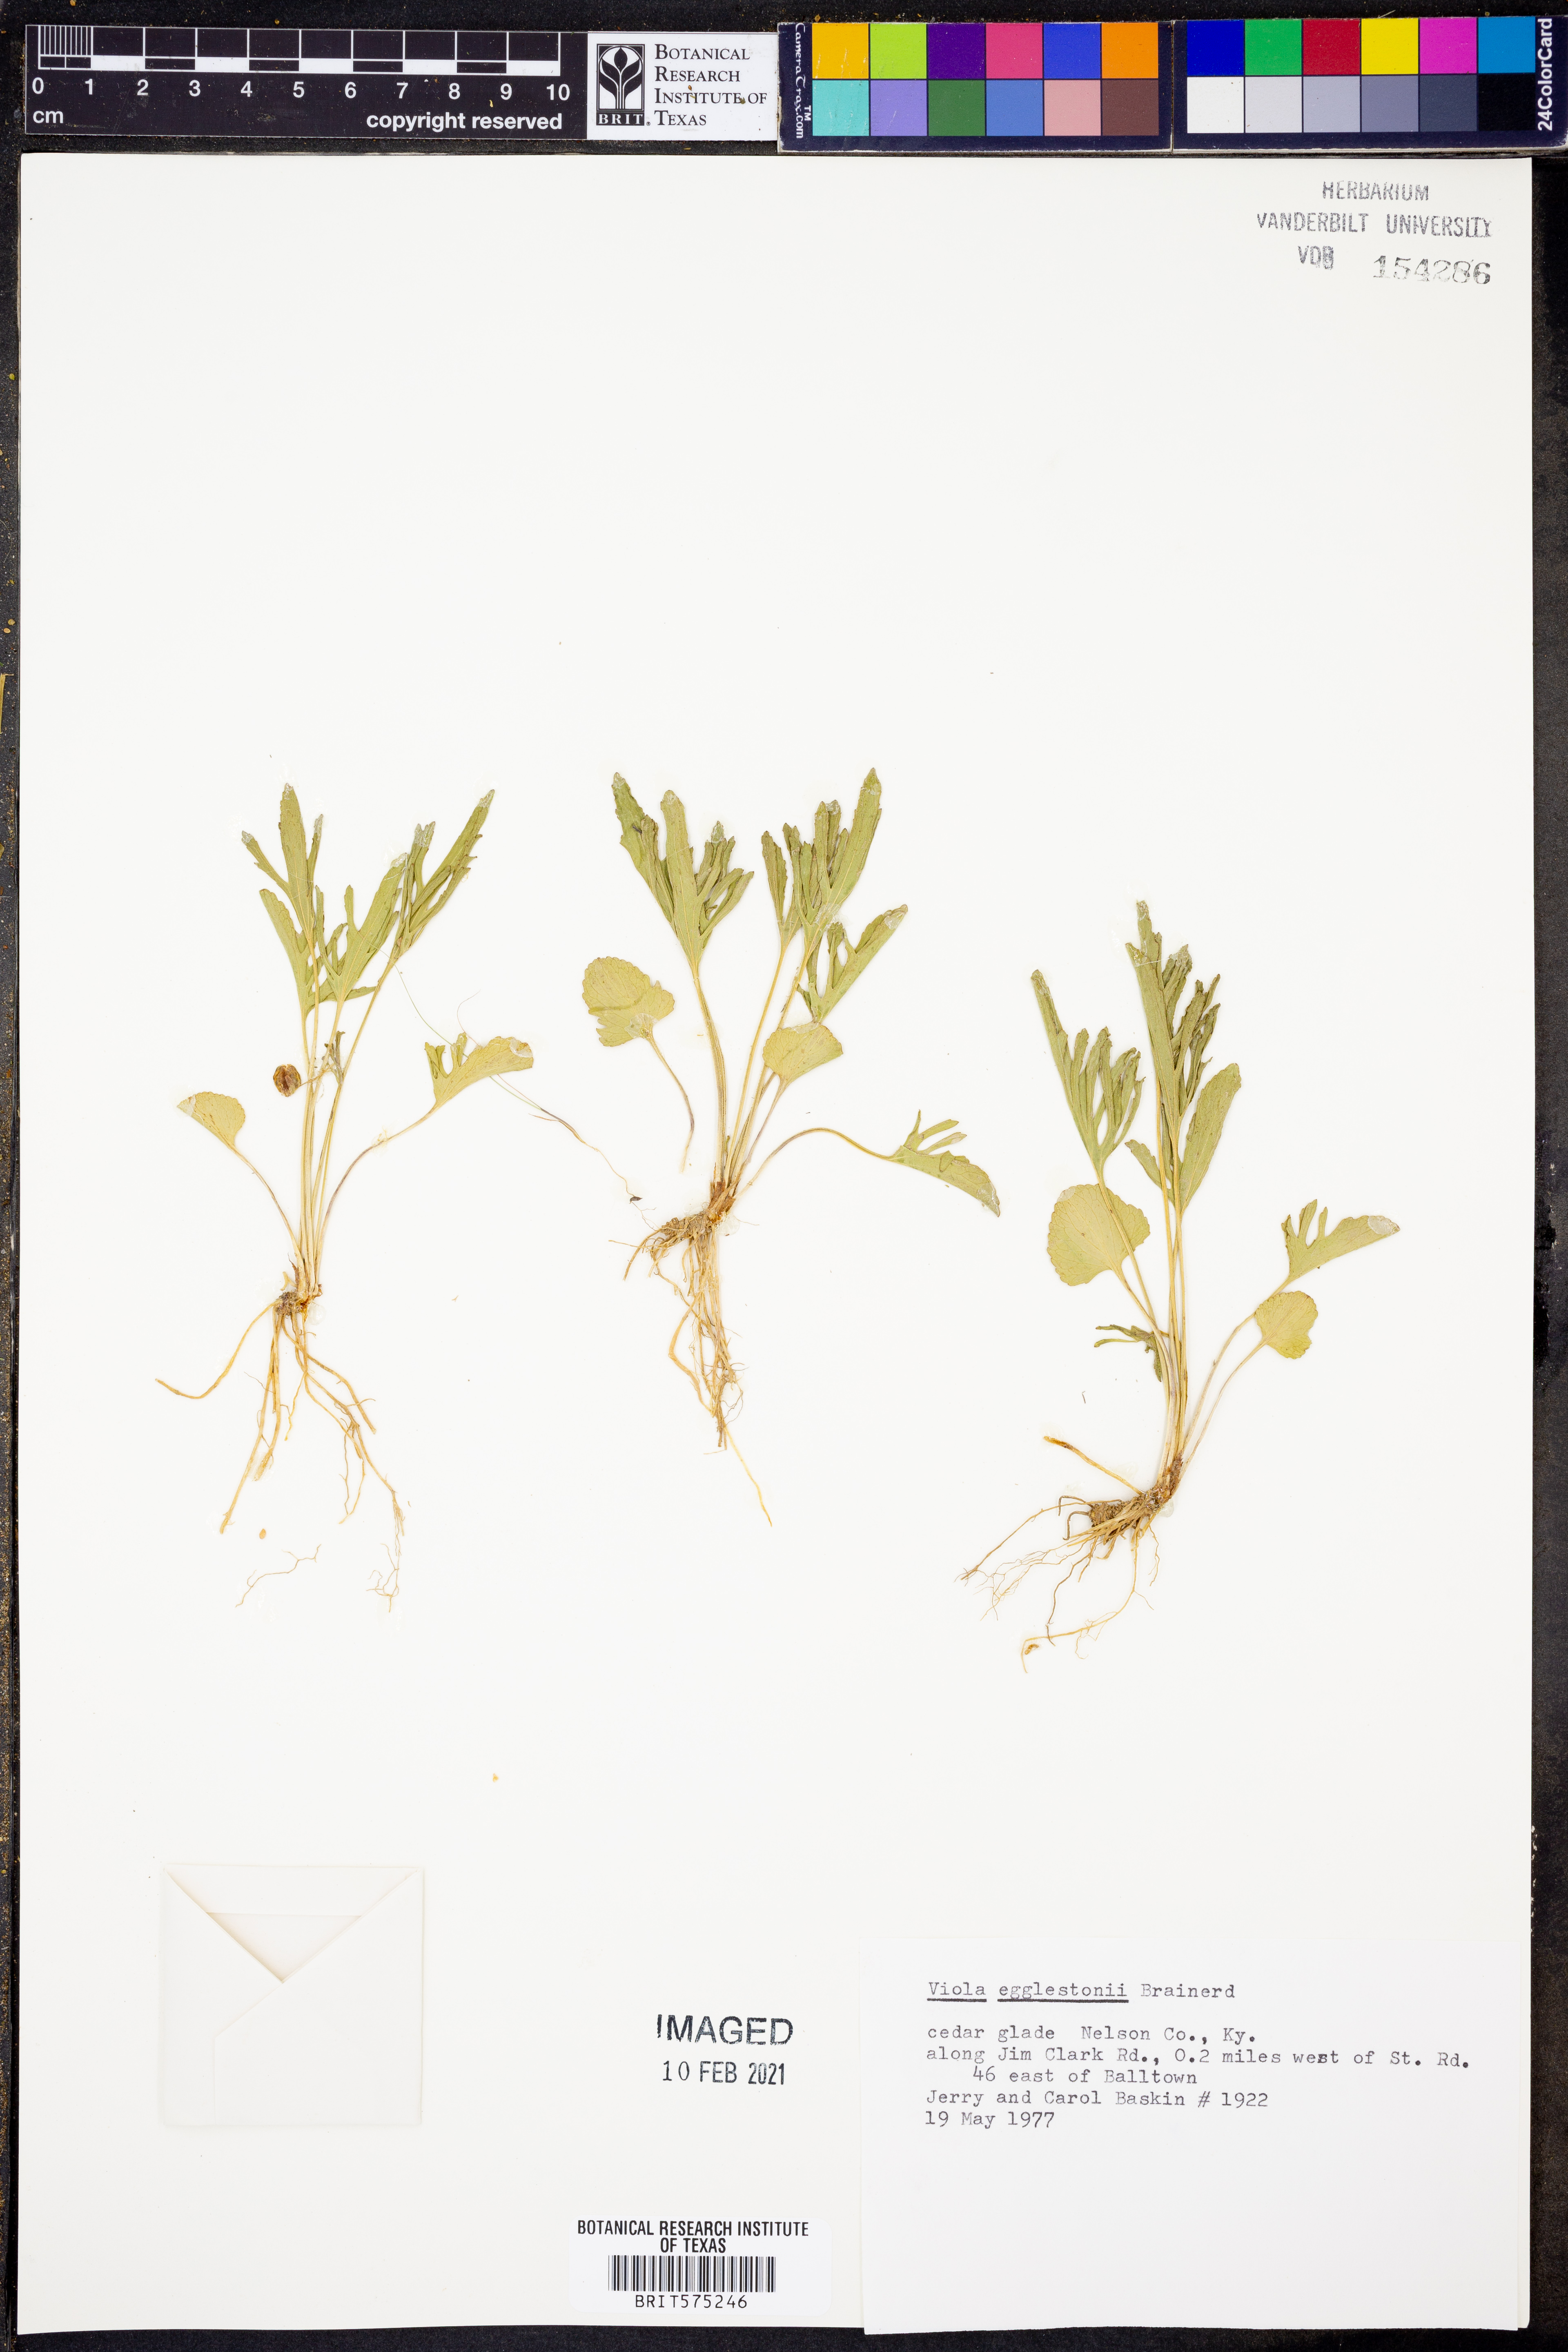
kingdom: Plantae
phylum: Tracheophyta
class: Magnoliopsida
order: Malpighiales
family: Violaceae
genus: Viola
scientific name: Viola egglestonii
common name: Glade violet
